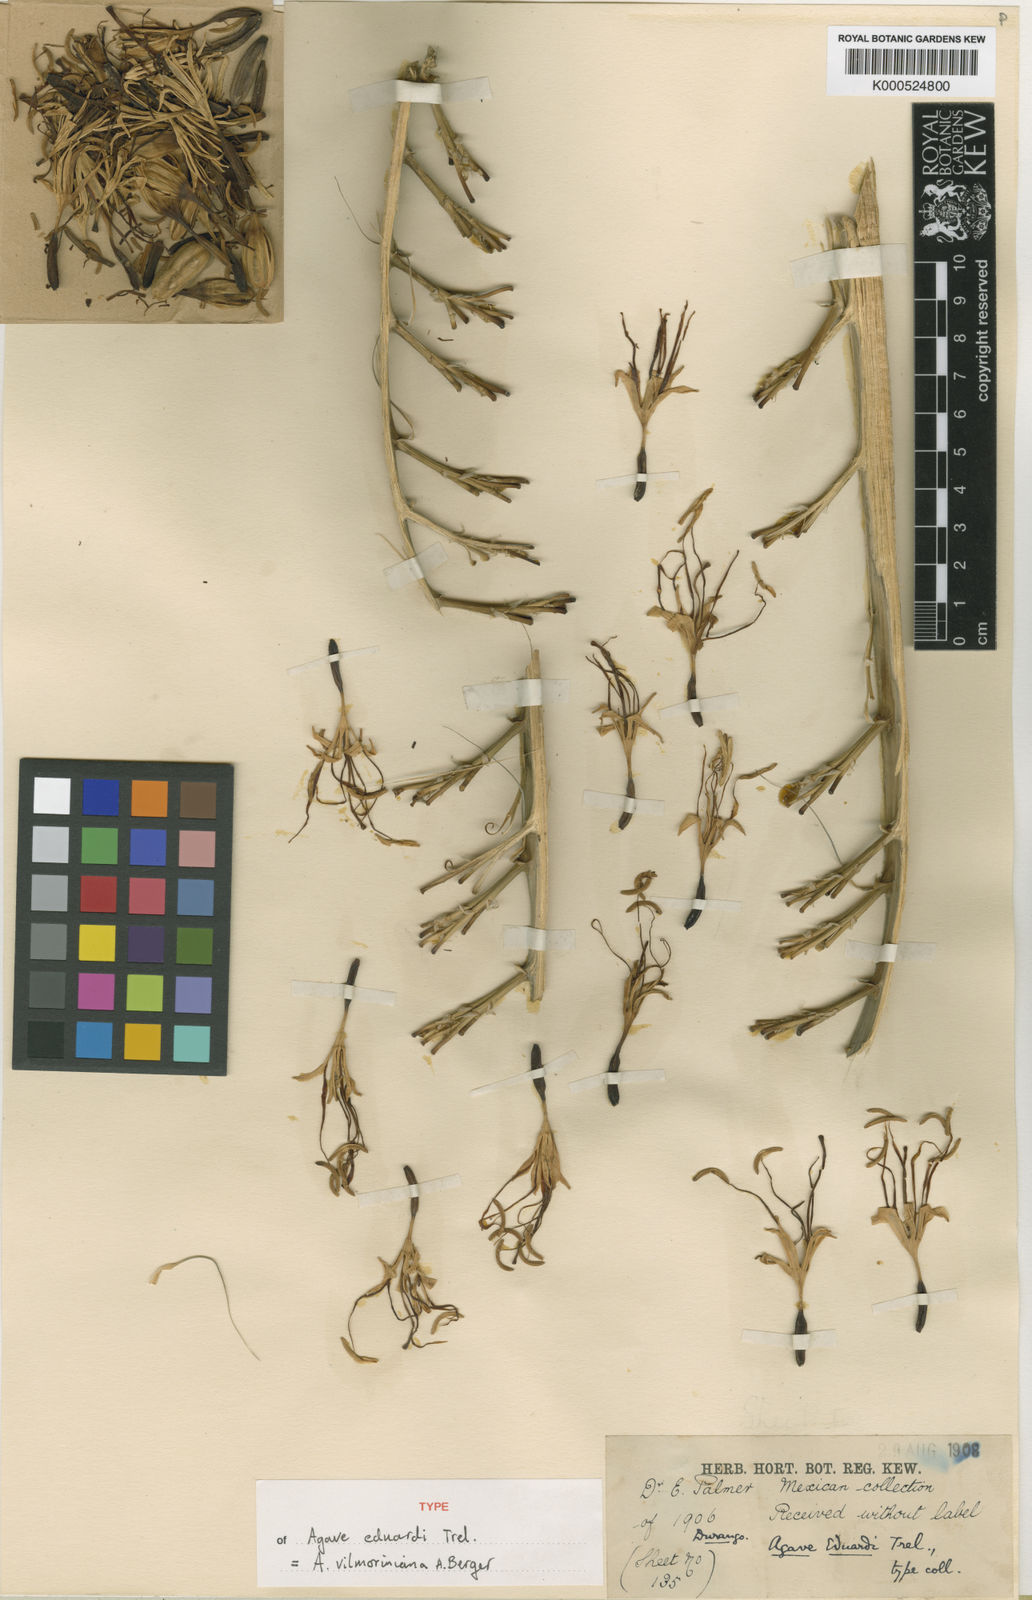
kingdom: Plantae
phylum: Tracheophyta
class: Liliopsida
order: Asparagales
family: Asparagaceae
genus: Agave
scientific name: Agave vilmoriniana
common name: Octopus plant
